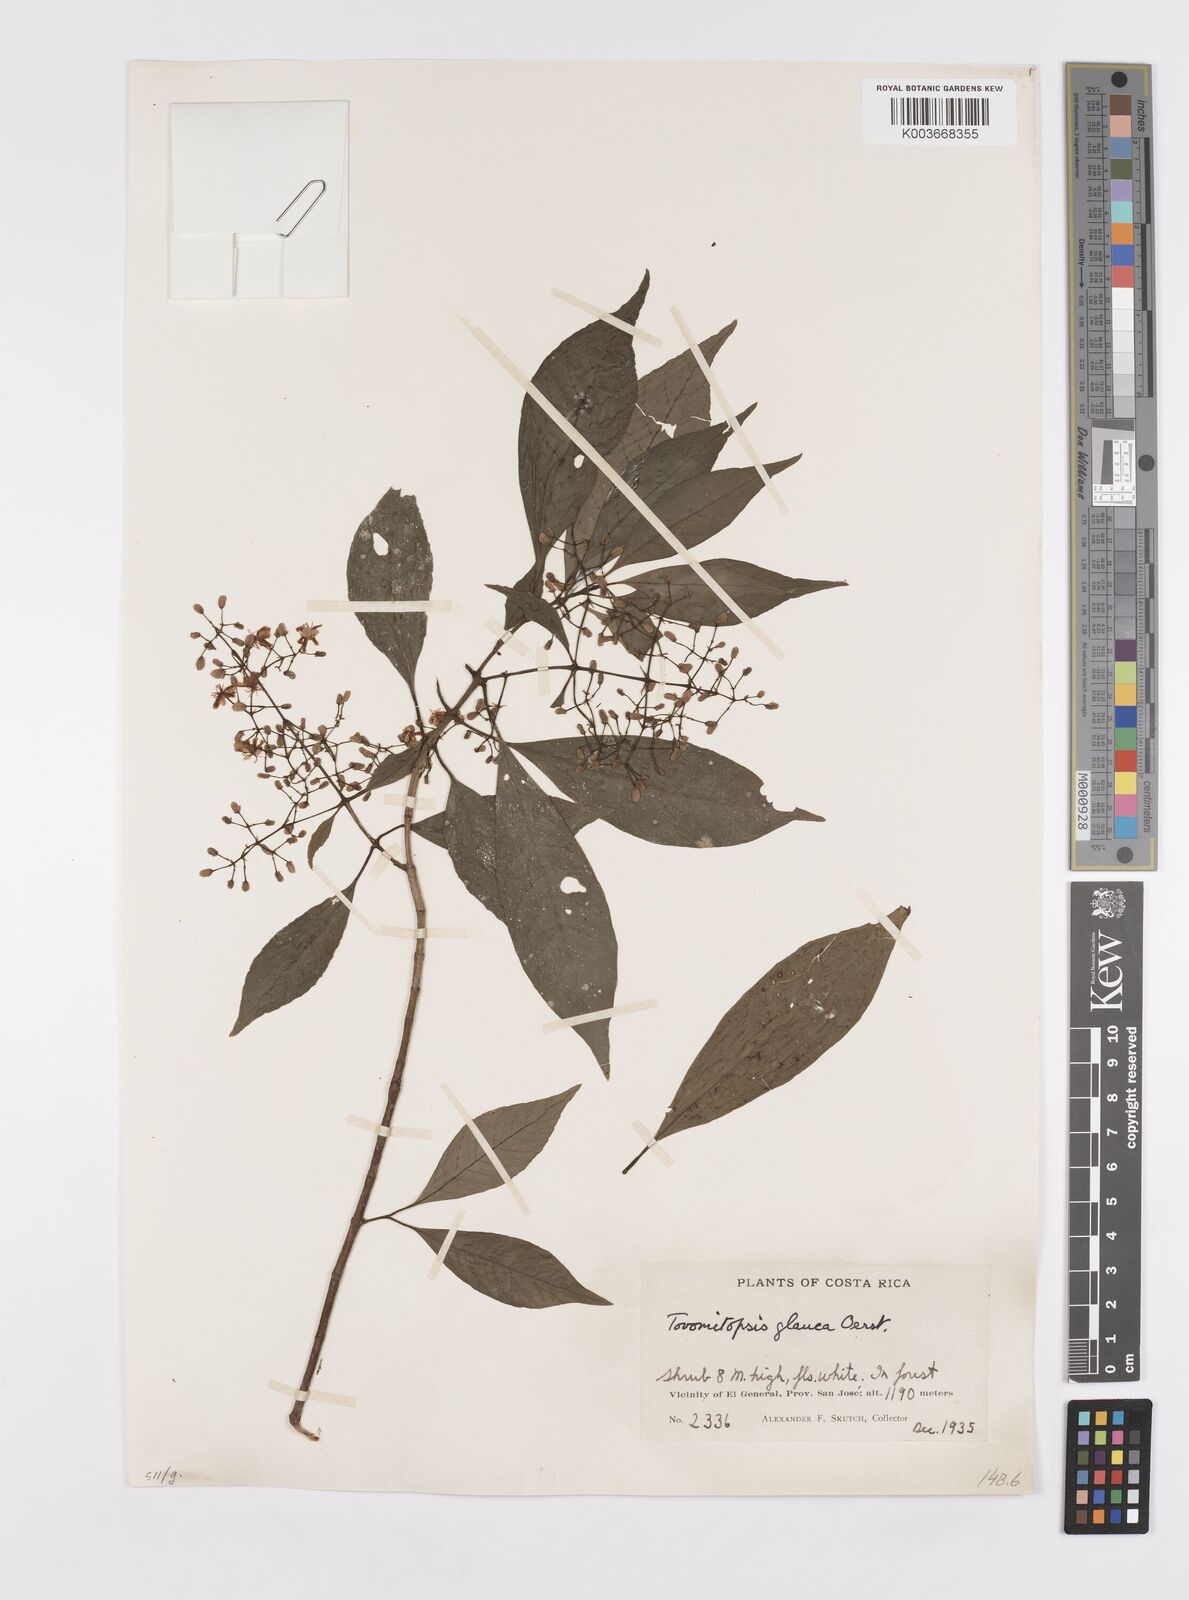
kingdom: Plantae
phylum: Tracheophyta
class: Magnoliopsida
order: Malpighiales
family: Clusiaceae
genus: Chrysochlamys
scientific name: Chrysochlamys glauca
